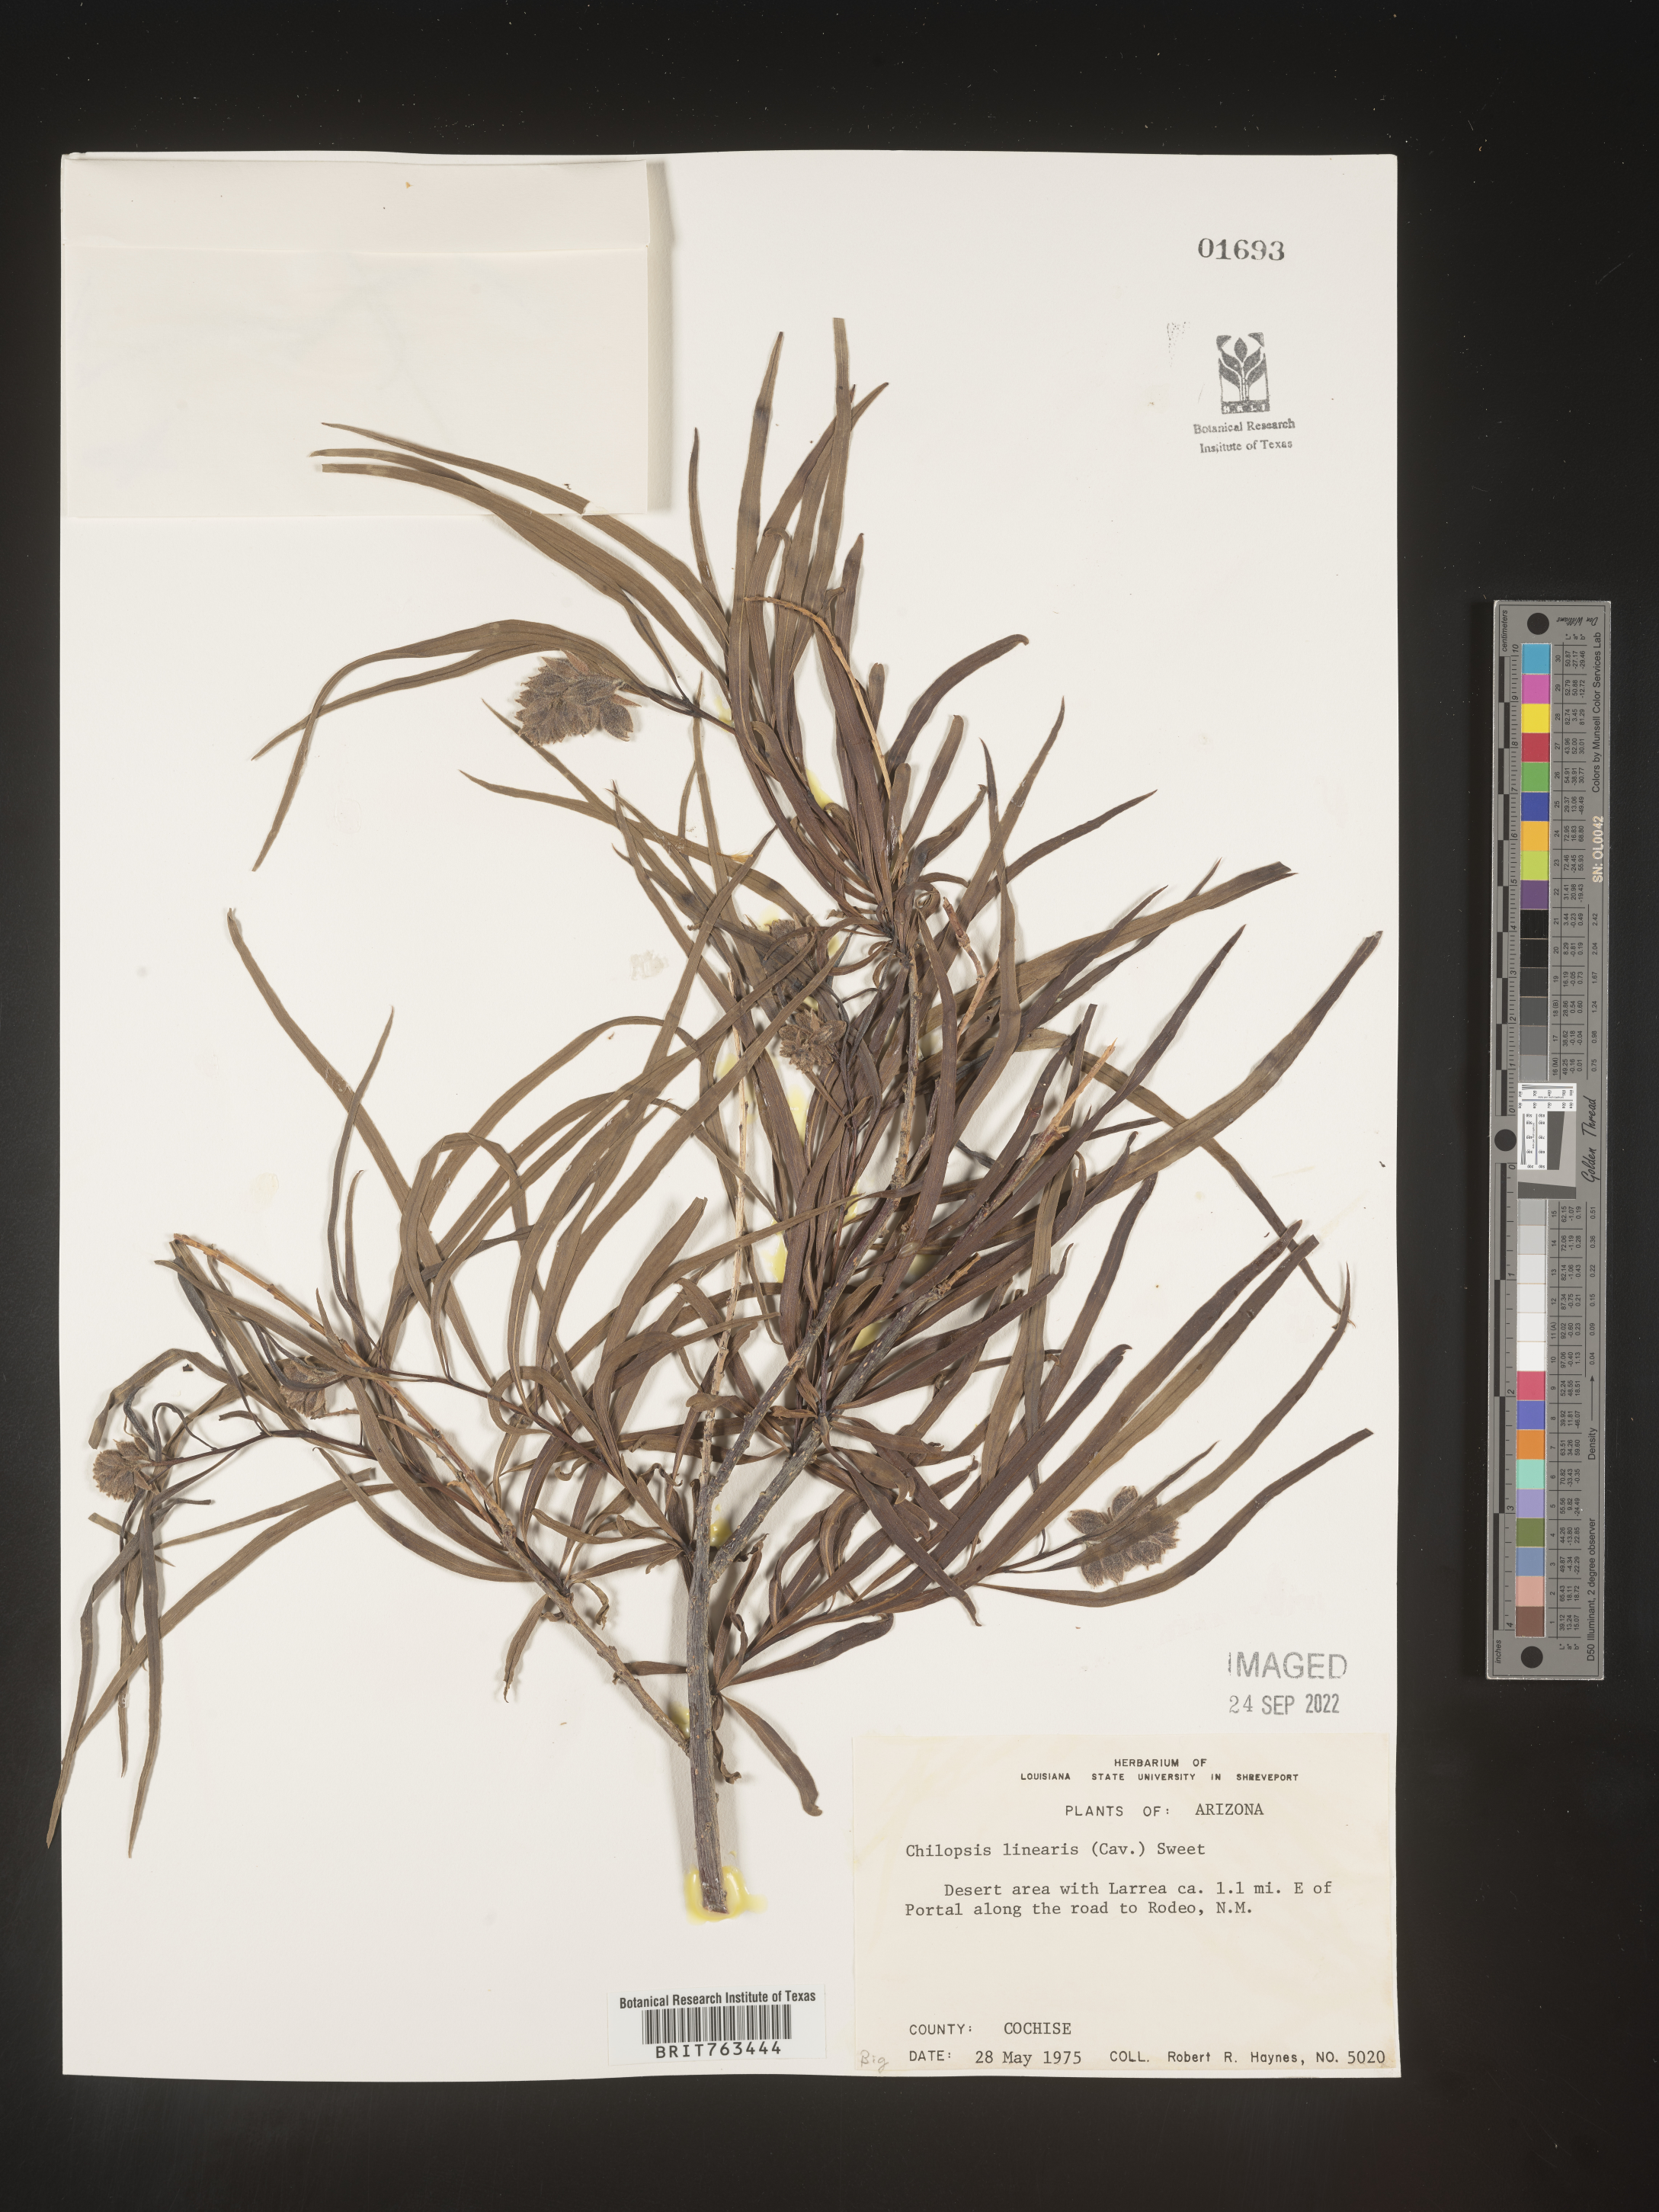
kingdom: Plantae
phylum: Tracheophyta
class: Magnoliopsida
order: Lamiales
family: Bignoniaceae
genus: Chilopsis
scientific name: Chilopsis linearis
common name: Desert-willow
